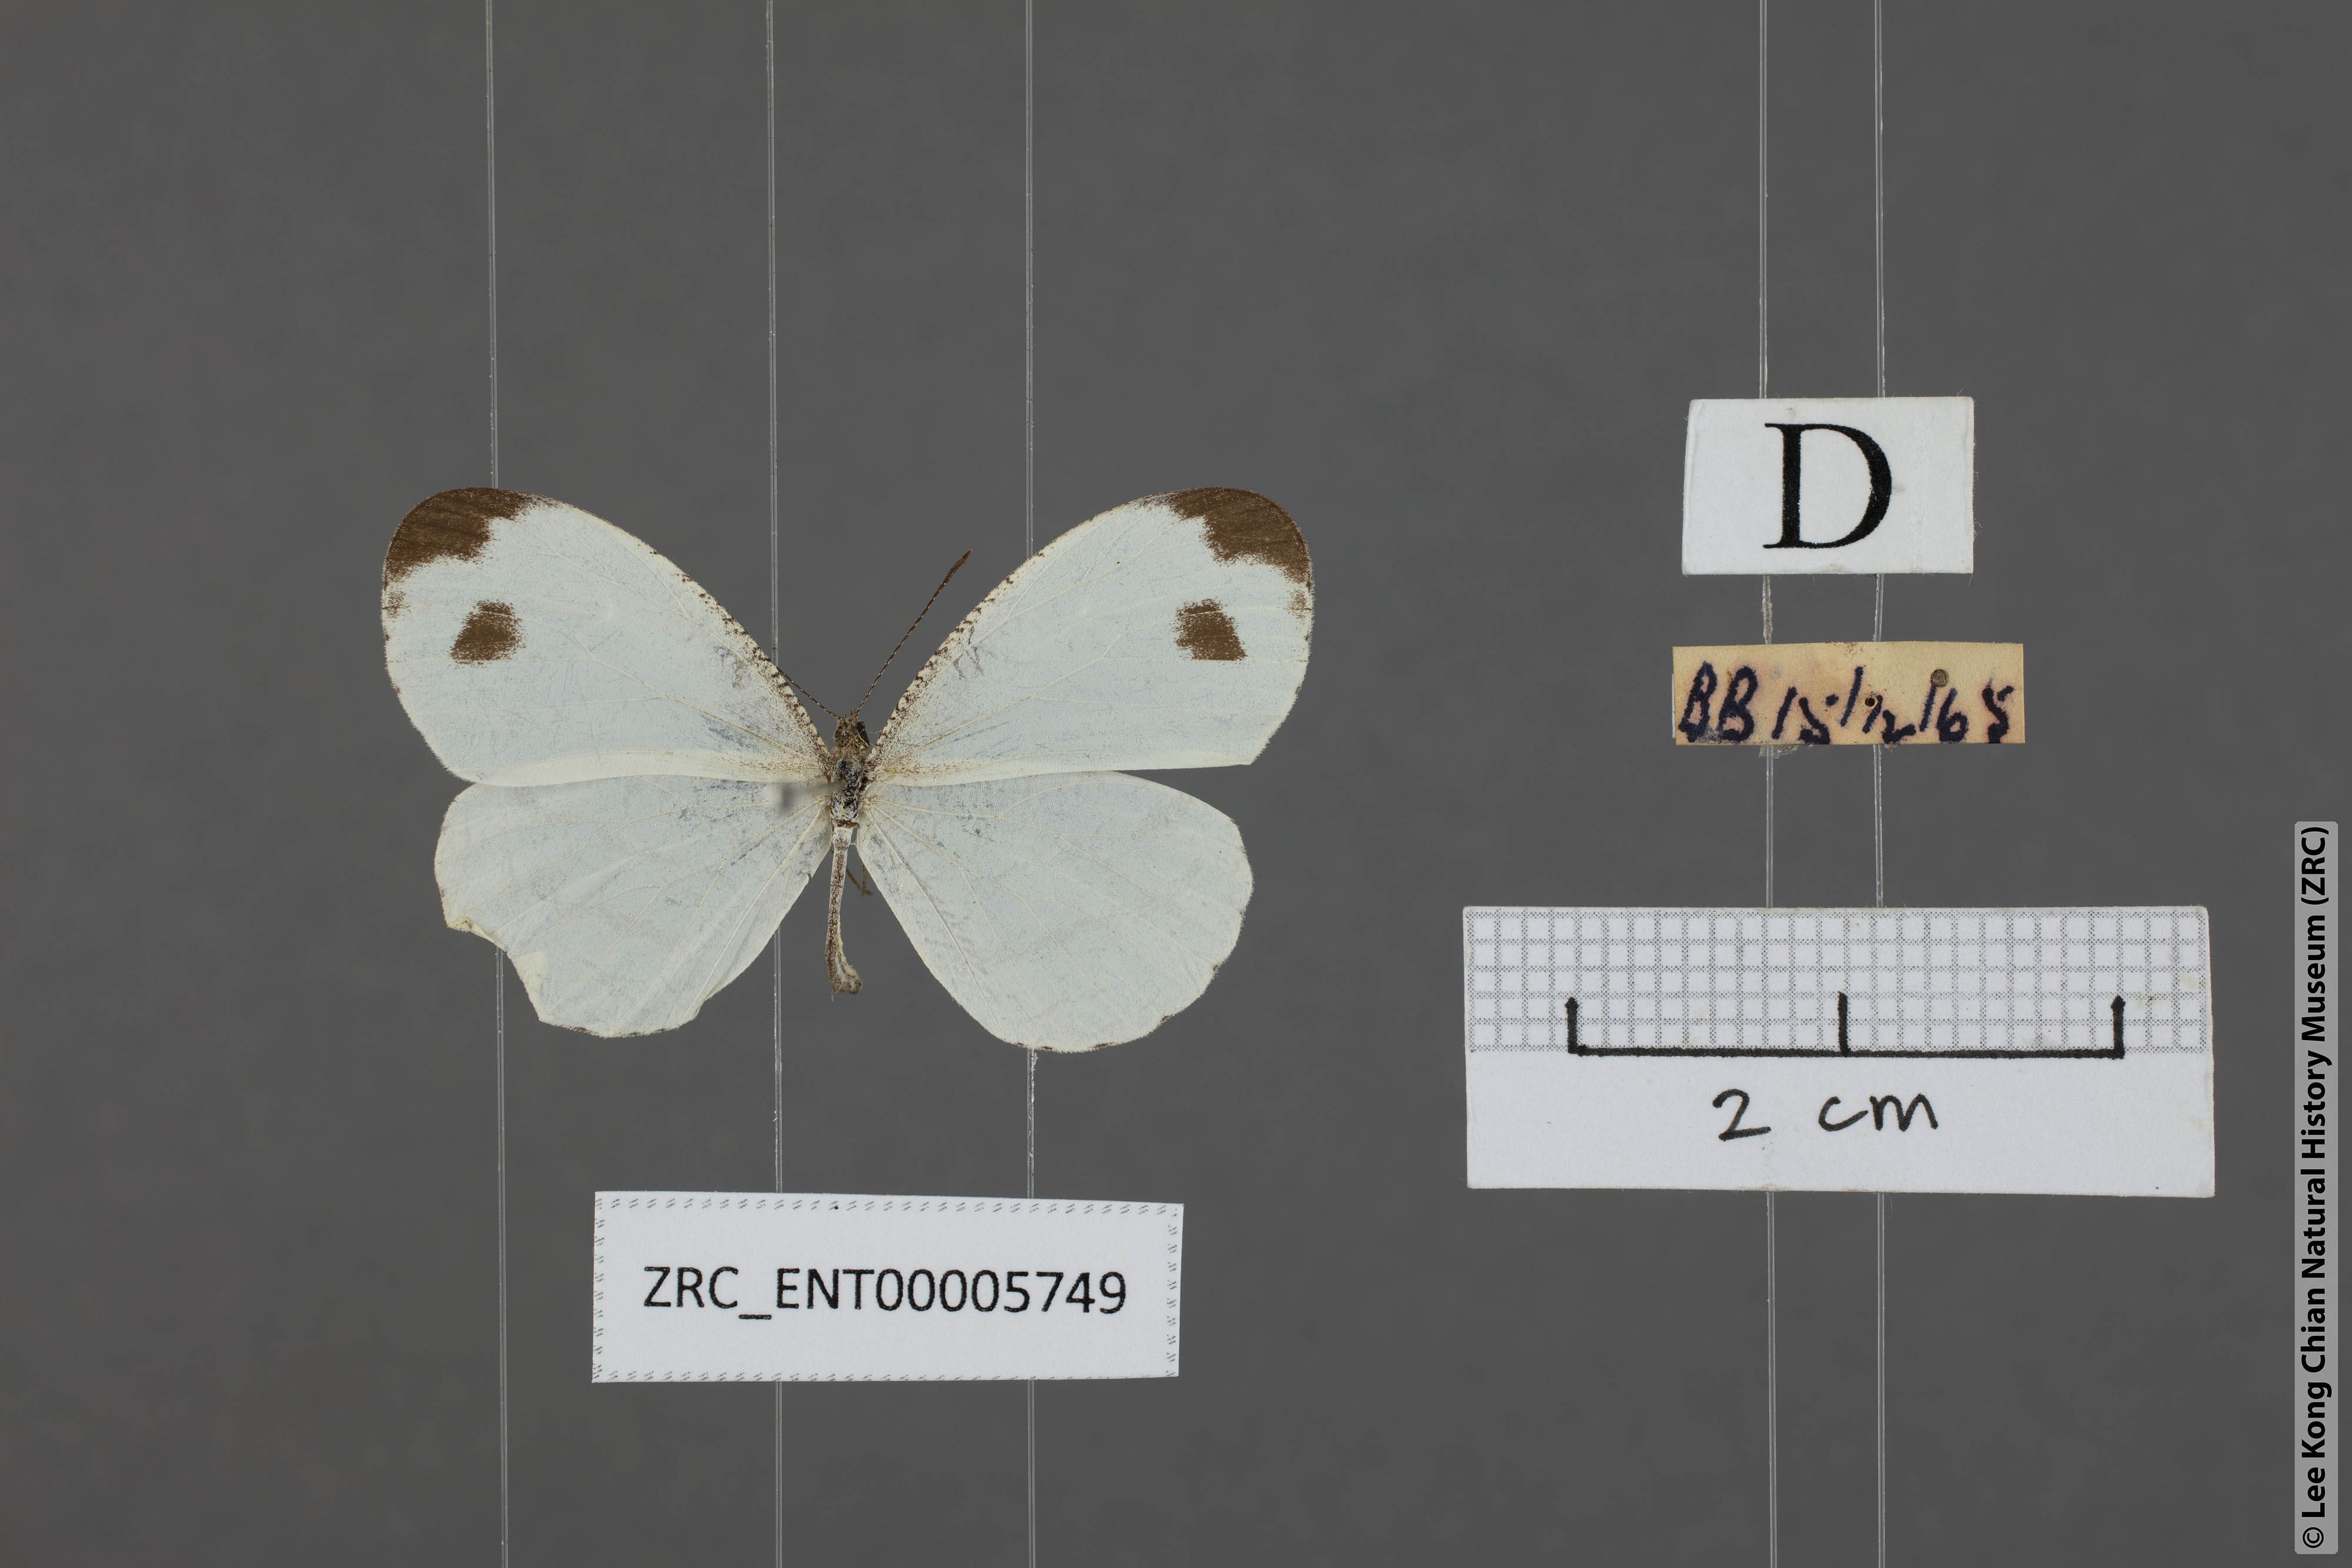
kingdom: Animalia
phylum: Arthropoda
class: Insecta
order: Lepidoptera
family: Pieridae
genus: Leptosia
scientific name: Leptosia nina
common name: Psyche
